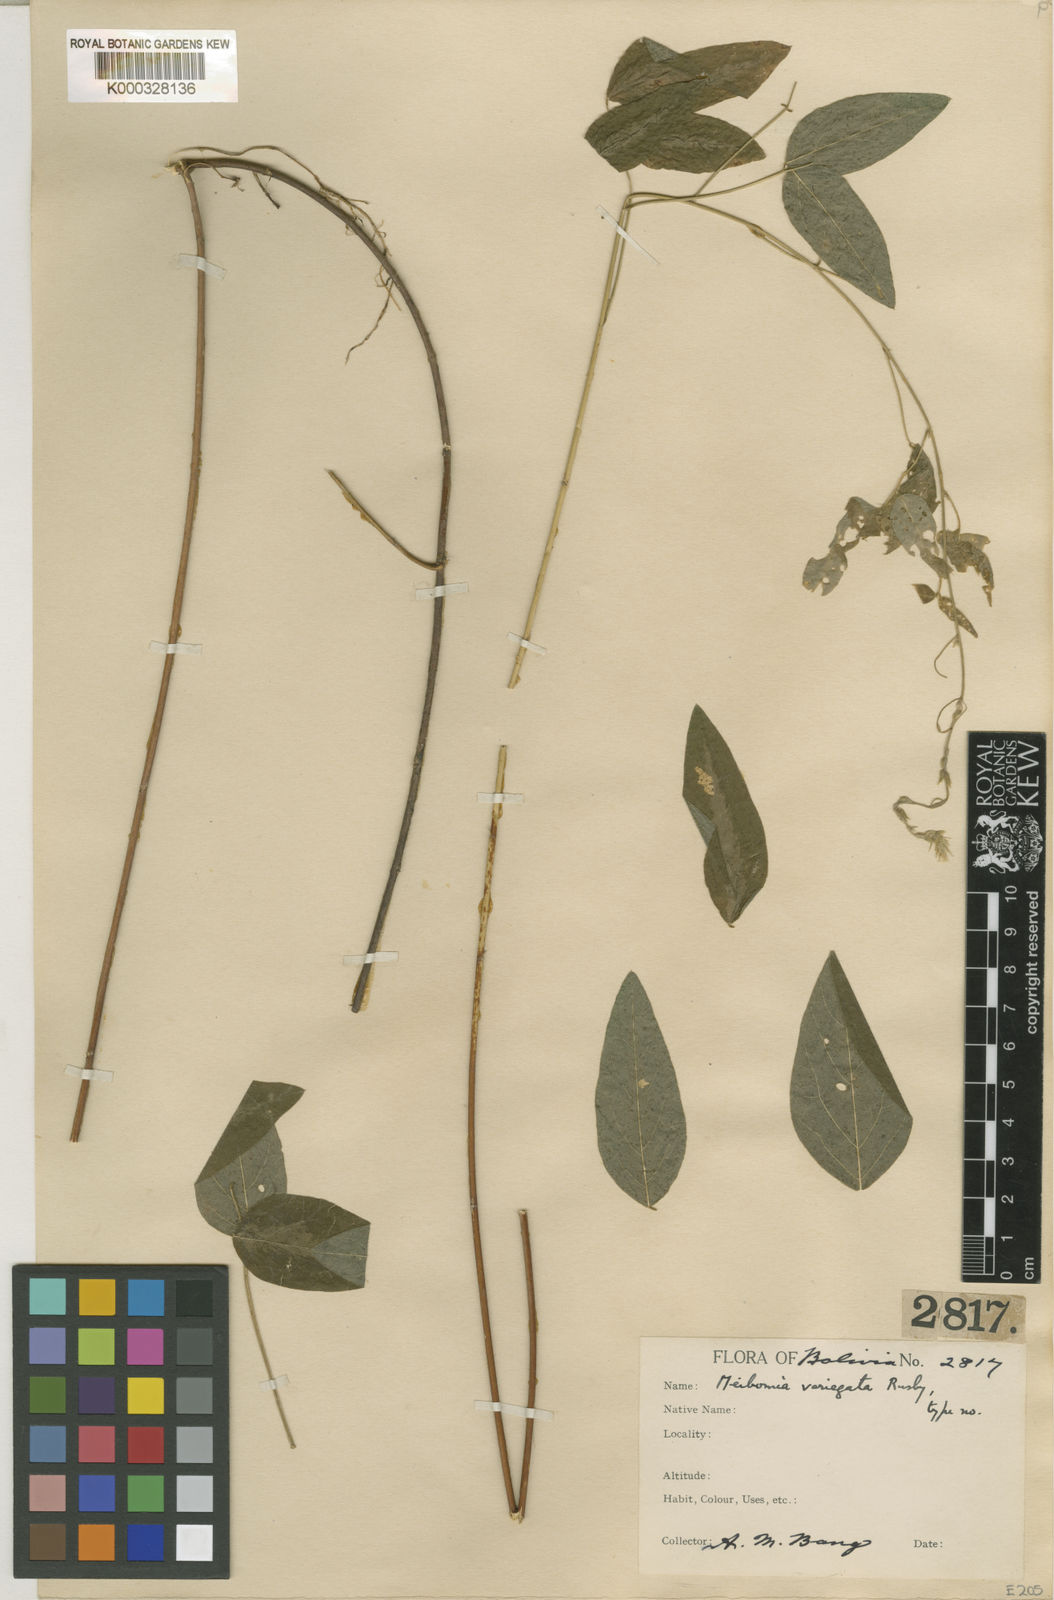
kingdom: Plantae
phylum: Tracheophyta
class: Magnoliopsida
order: Fabales
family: Fabaceae
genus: Desmodium
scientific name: Desmodium
